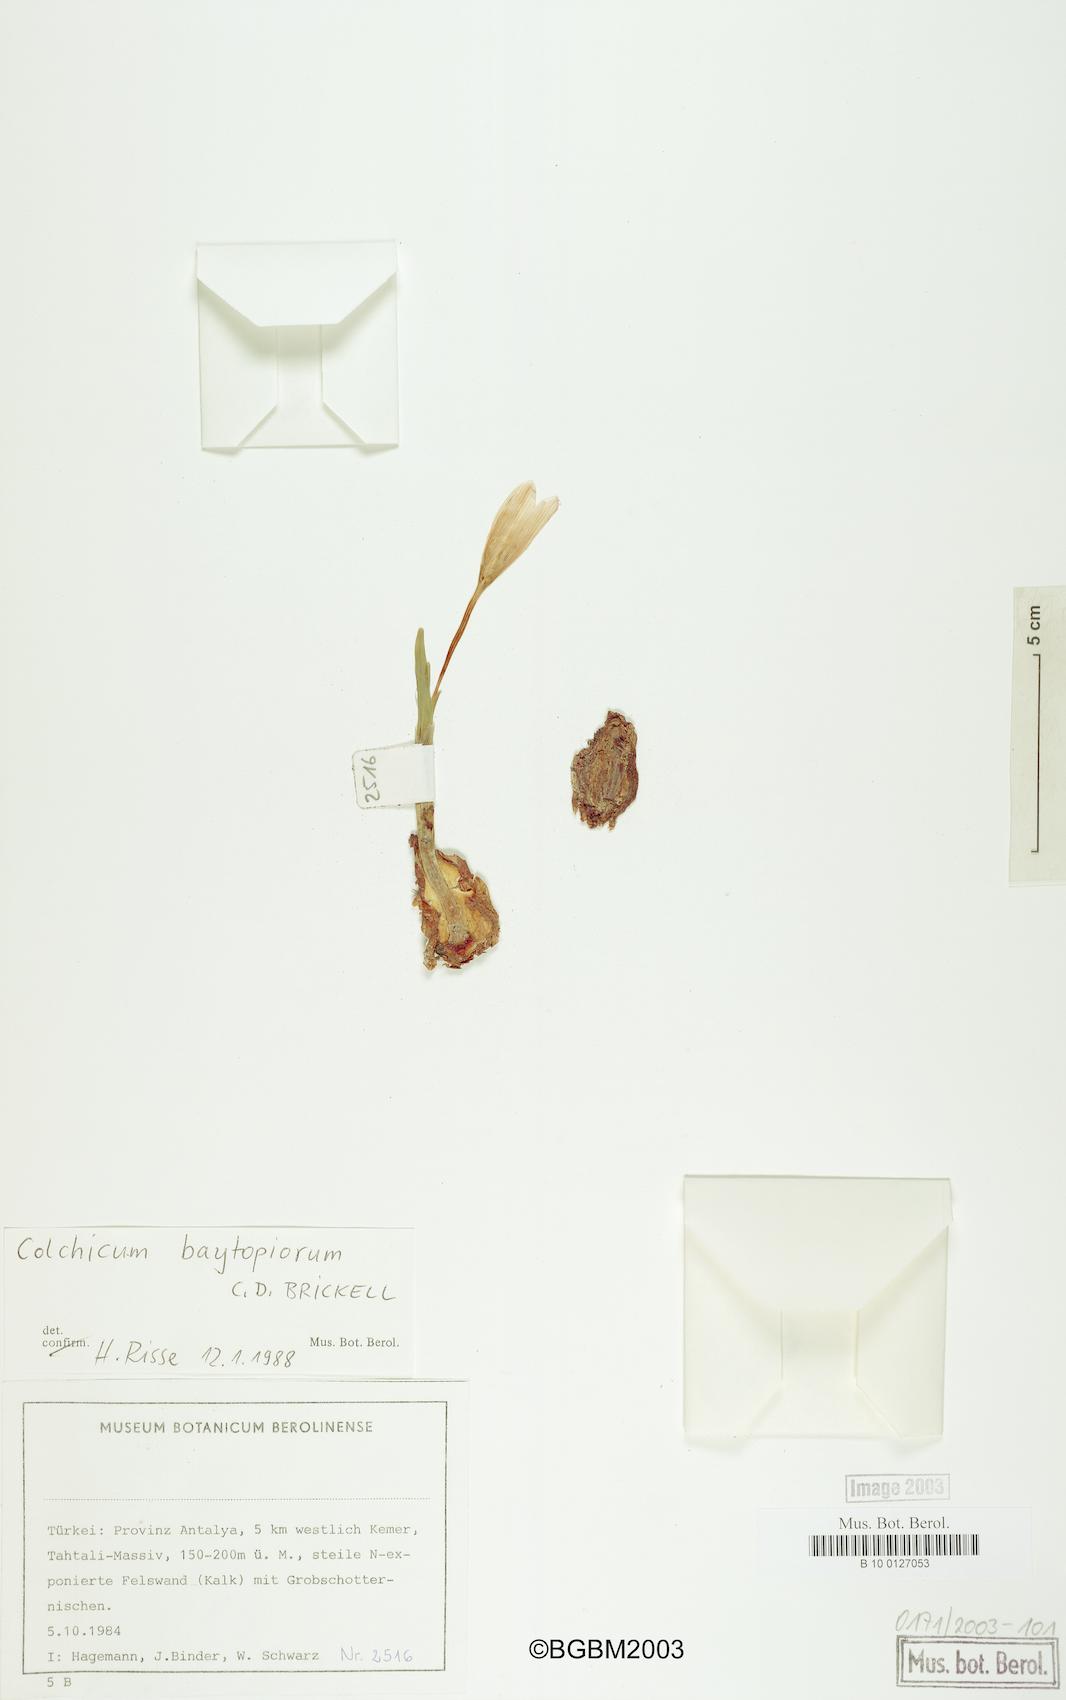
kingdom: Plantae
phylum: Tracheophyta
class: Liliopsida
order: Liliales
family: Colchicaceae
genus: Colchicum
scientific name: Colchicum baytopiorum
